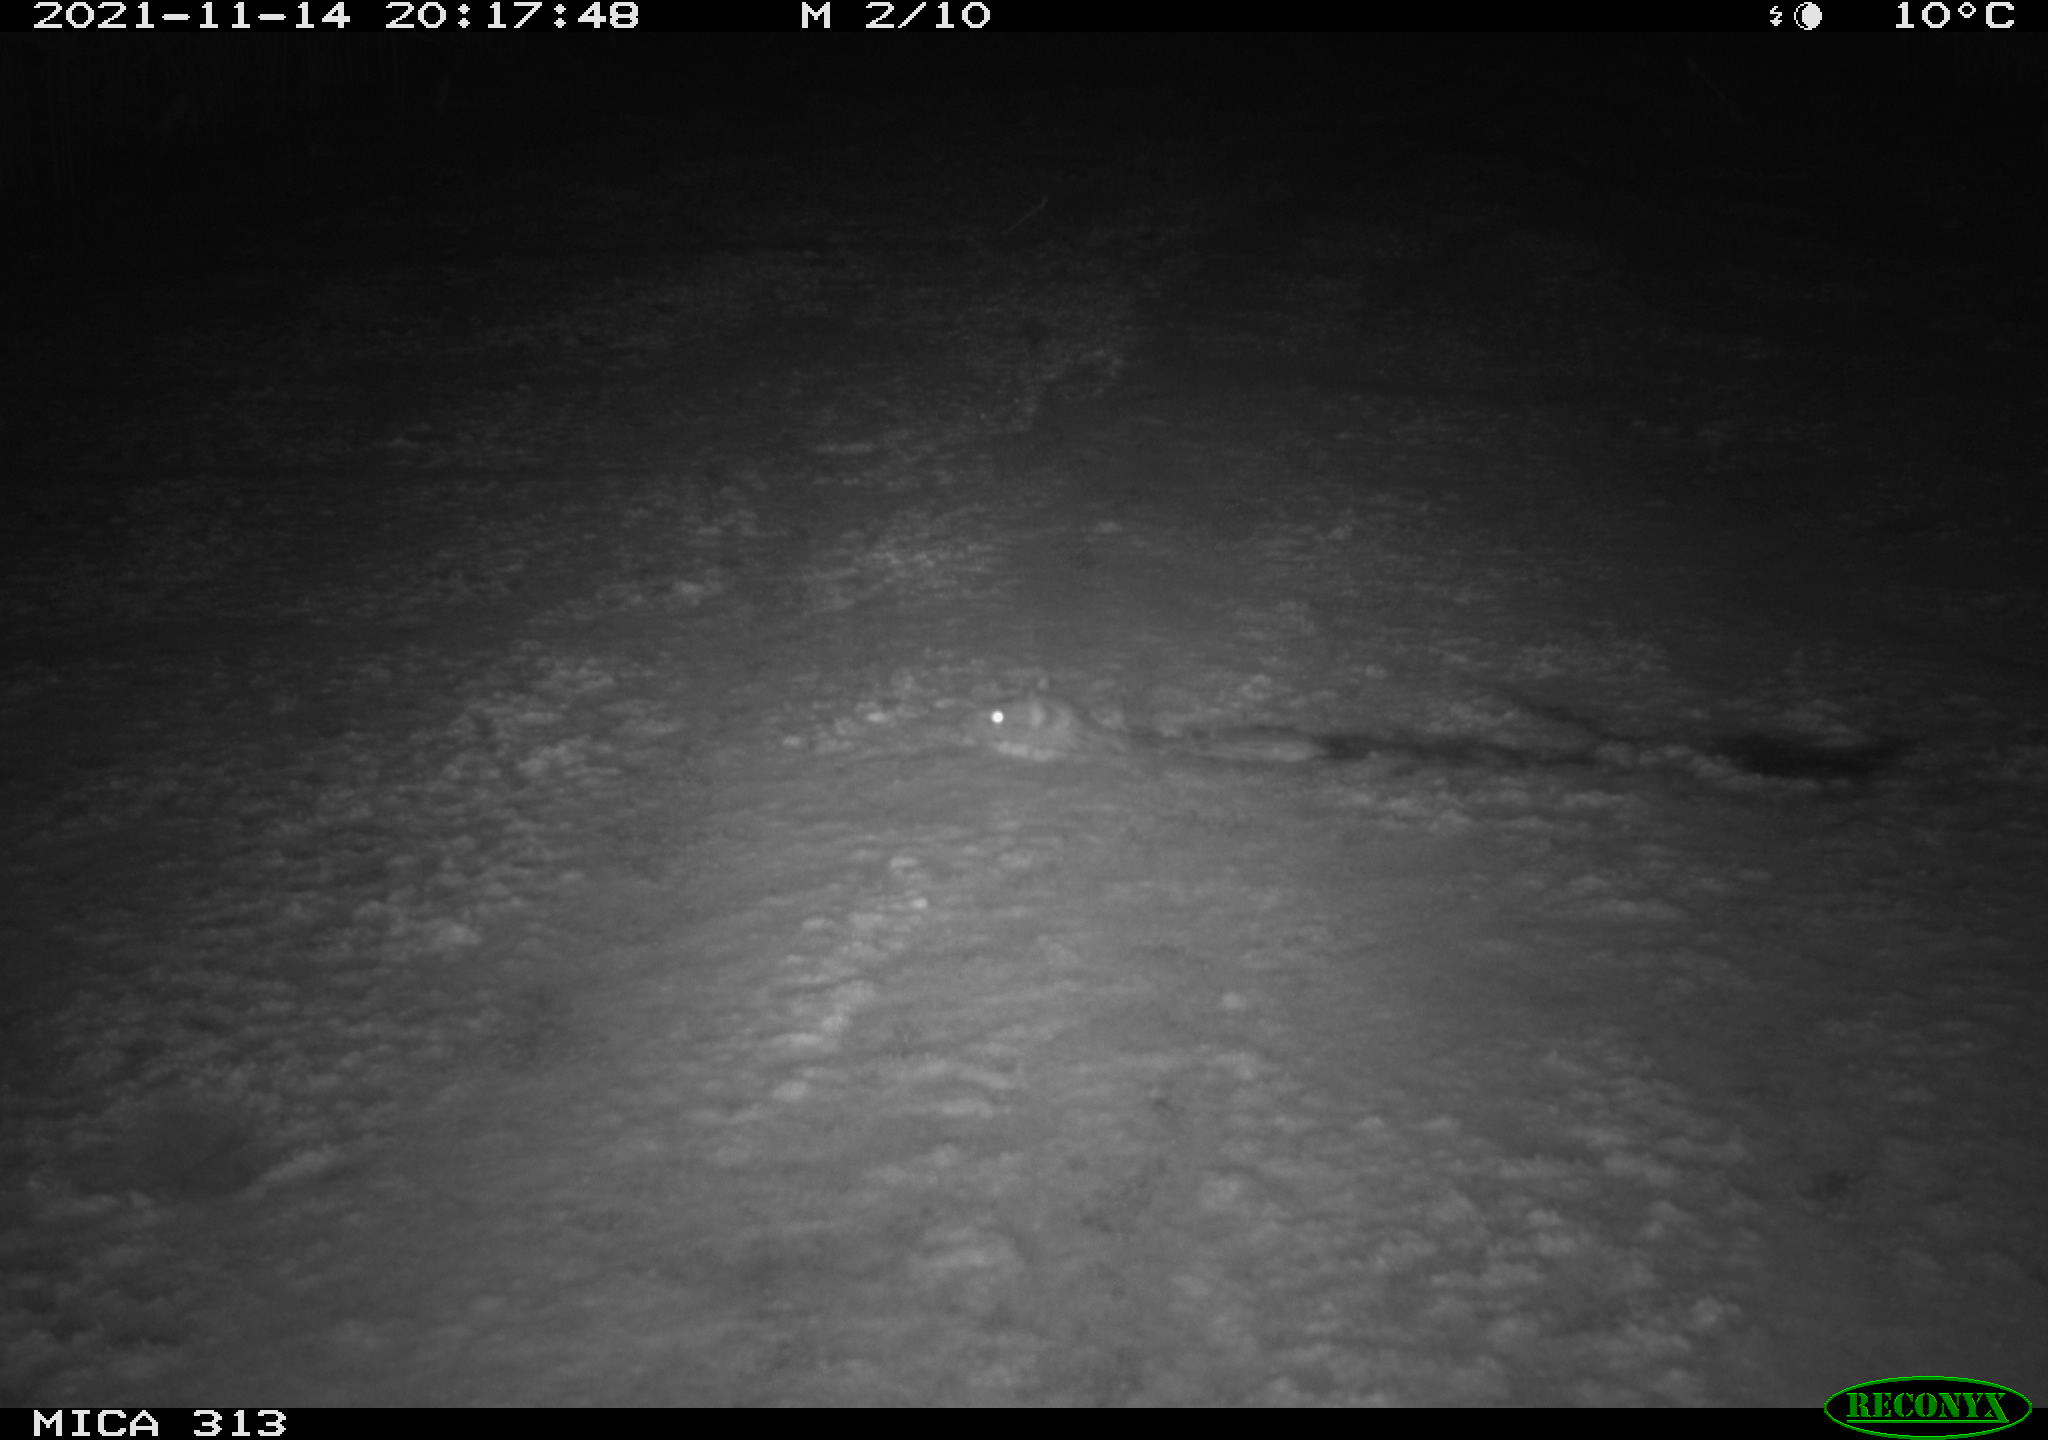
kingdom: Animalia
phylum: Chordata
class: Mammalia
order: Rodentia
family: Muridae
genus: Rattus
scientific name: Rattus norvegicus
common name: Brown rat
